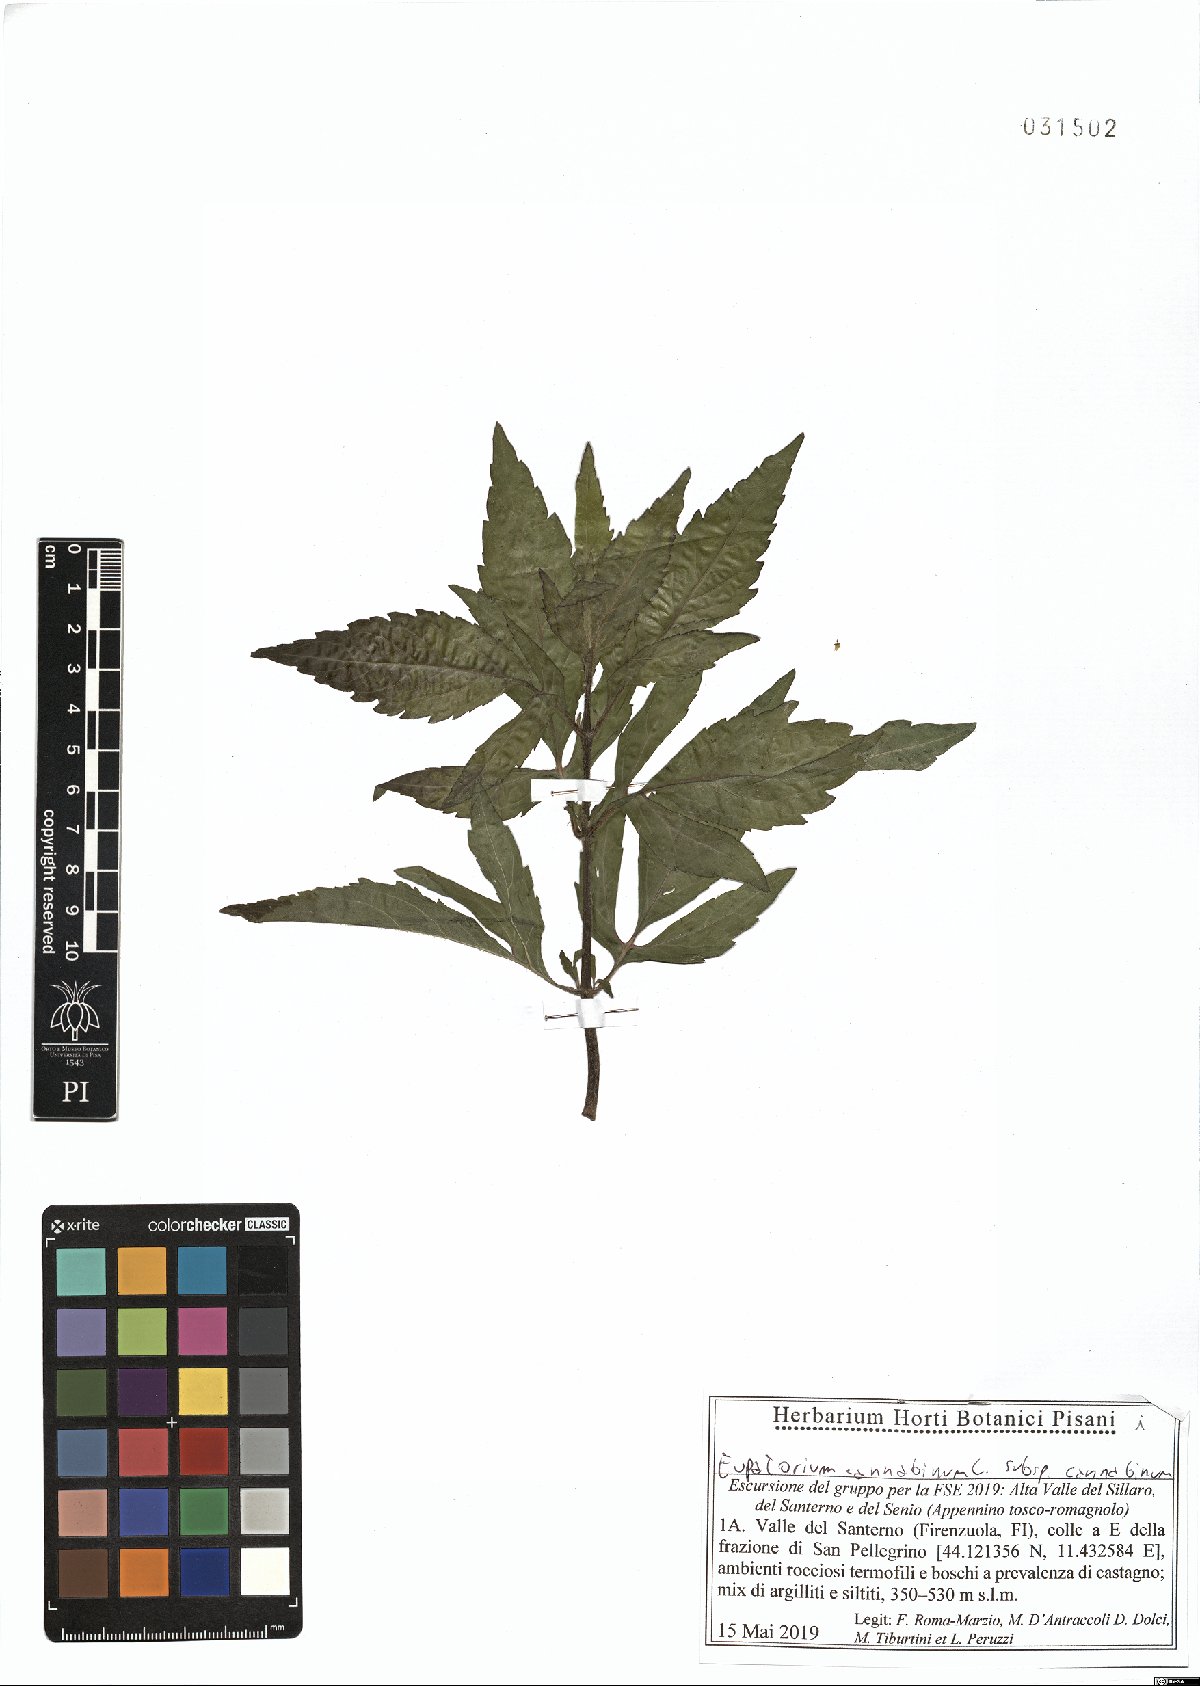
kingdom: Plantae
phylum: Tracheophyta
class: Magnoliopsida
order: Asterales
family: Asteraceae
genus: Eupatorium
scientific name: Eupatorium cannabinum
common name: Hemp-agrimony
